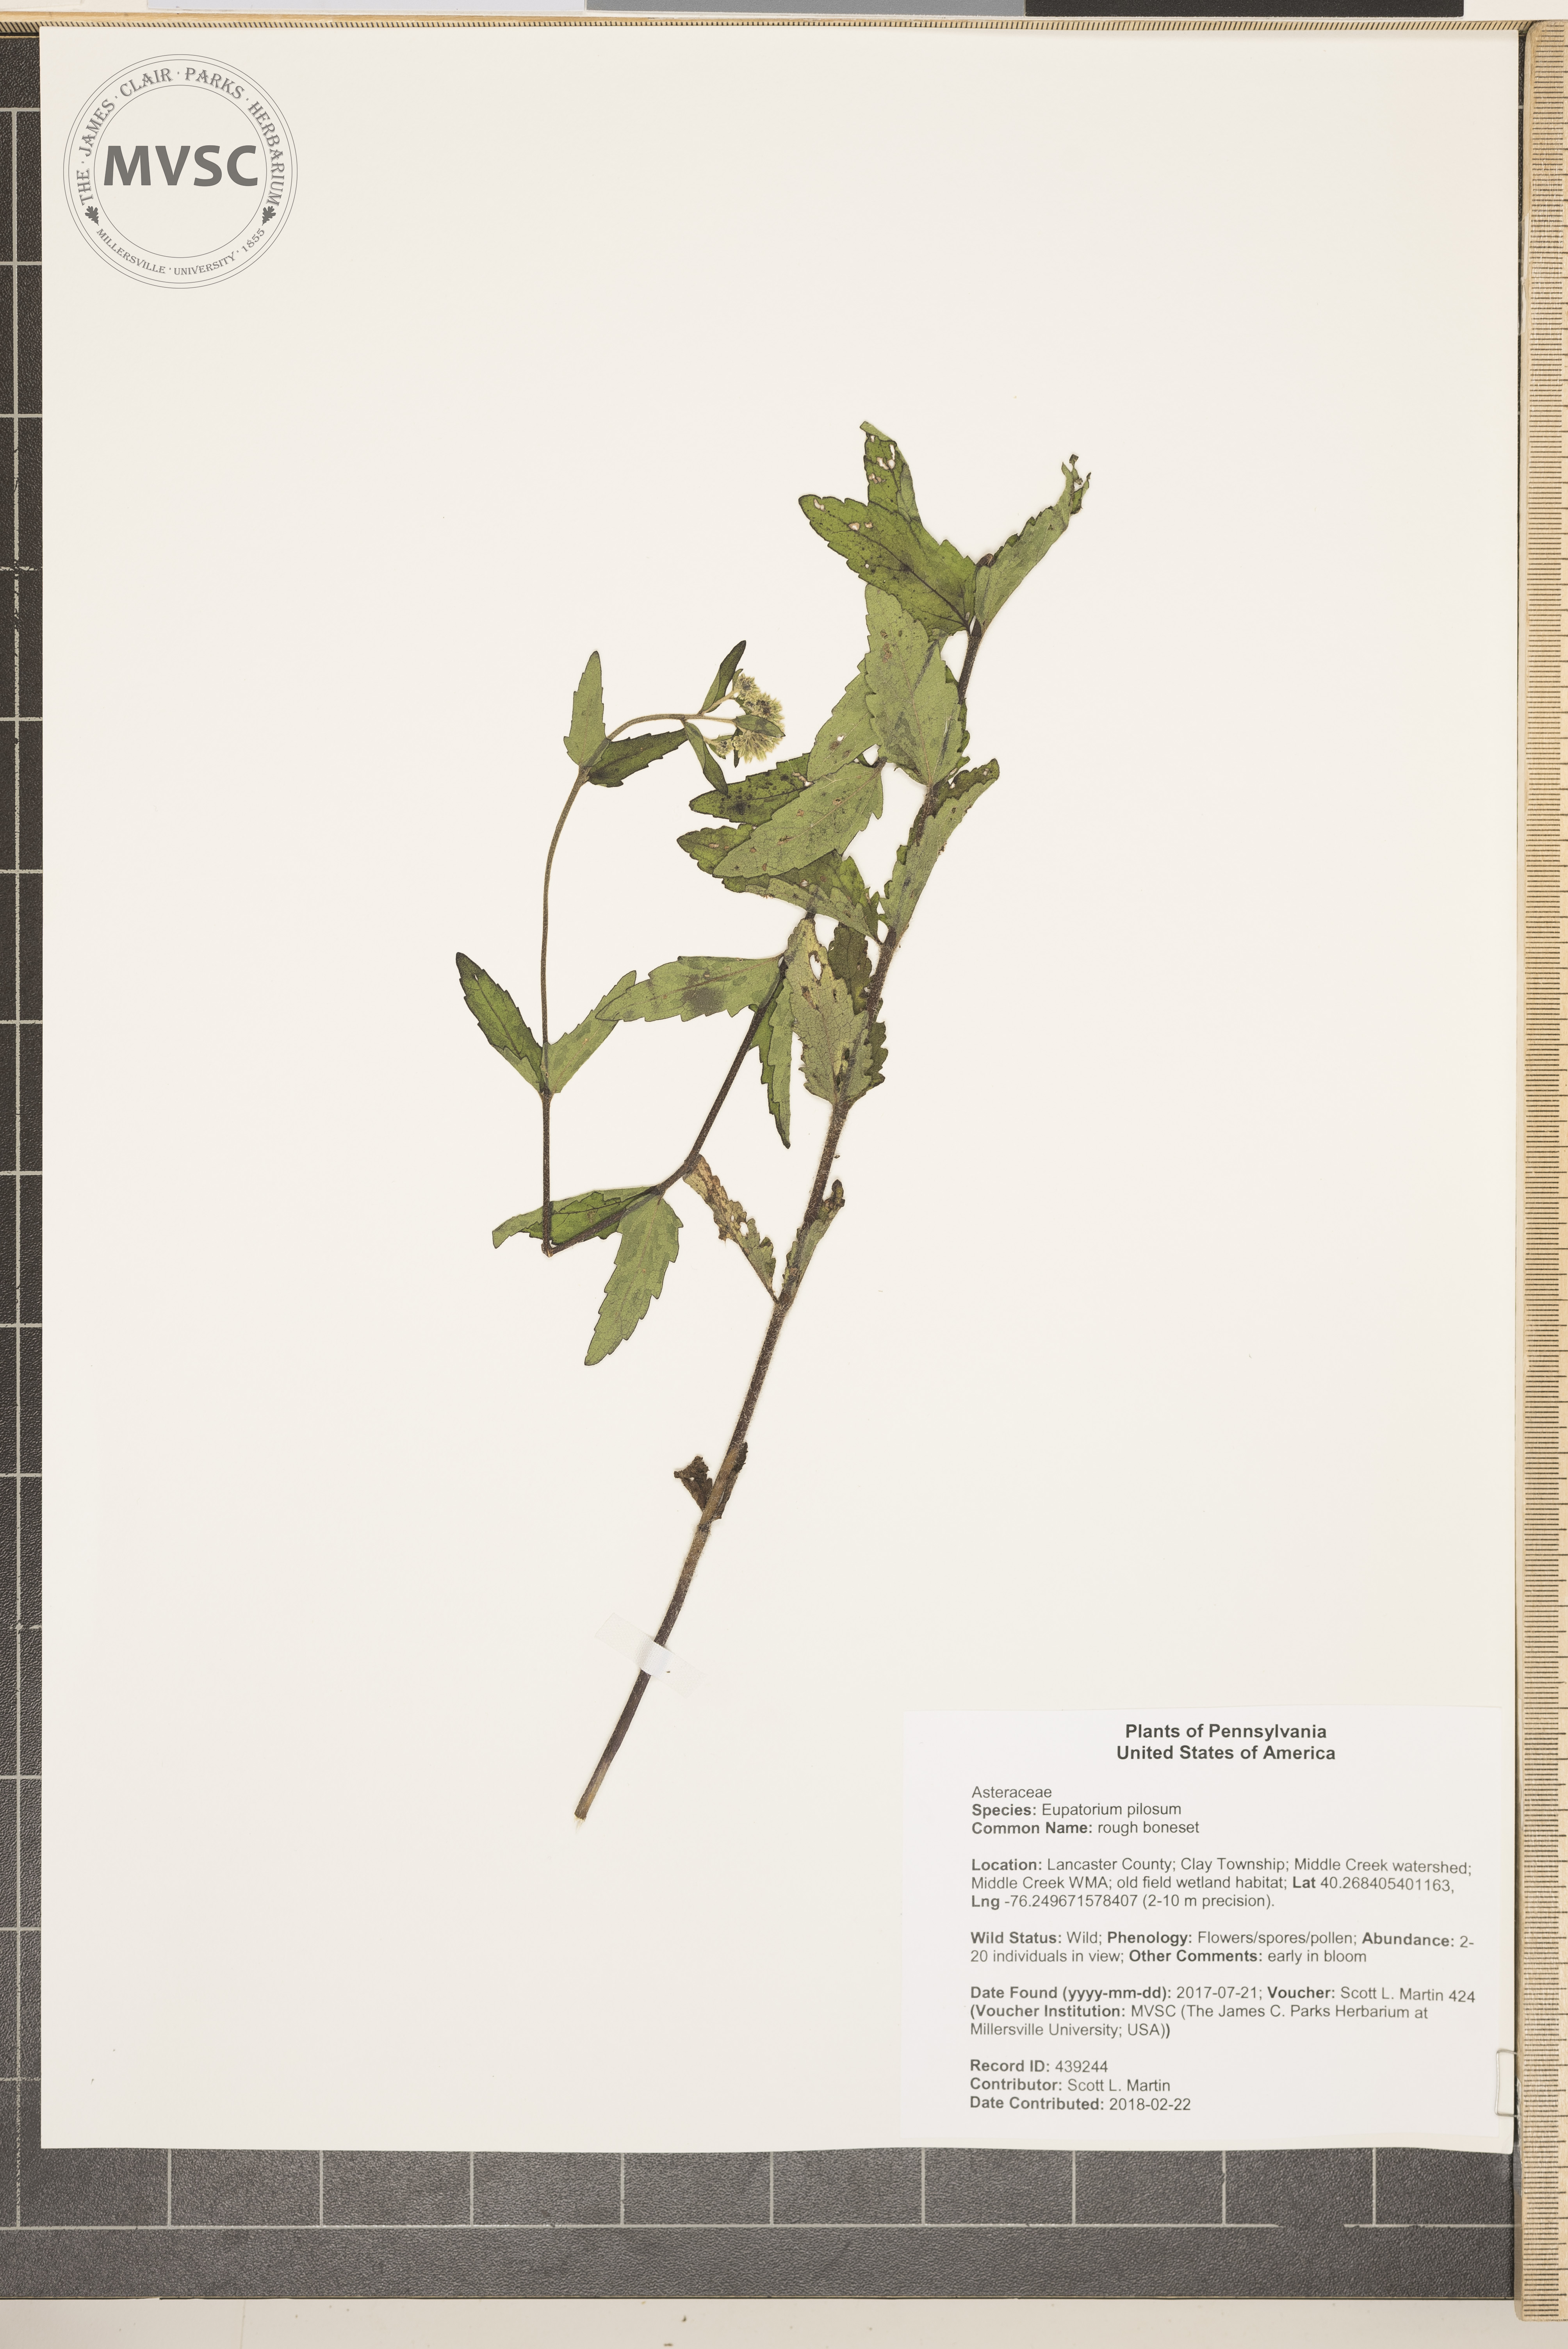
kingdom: Plantae
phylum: Tracheophyta
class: Magnoliopsida
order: Asterales
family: Asteraceae
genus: Eupatorium
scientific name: Eupatorium pilosum
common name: rough boneset
